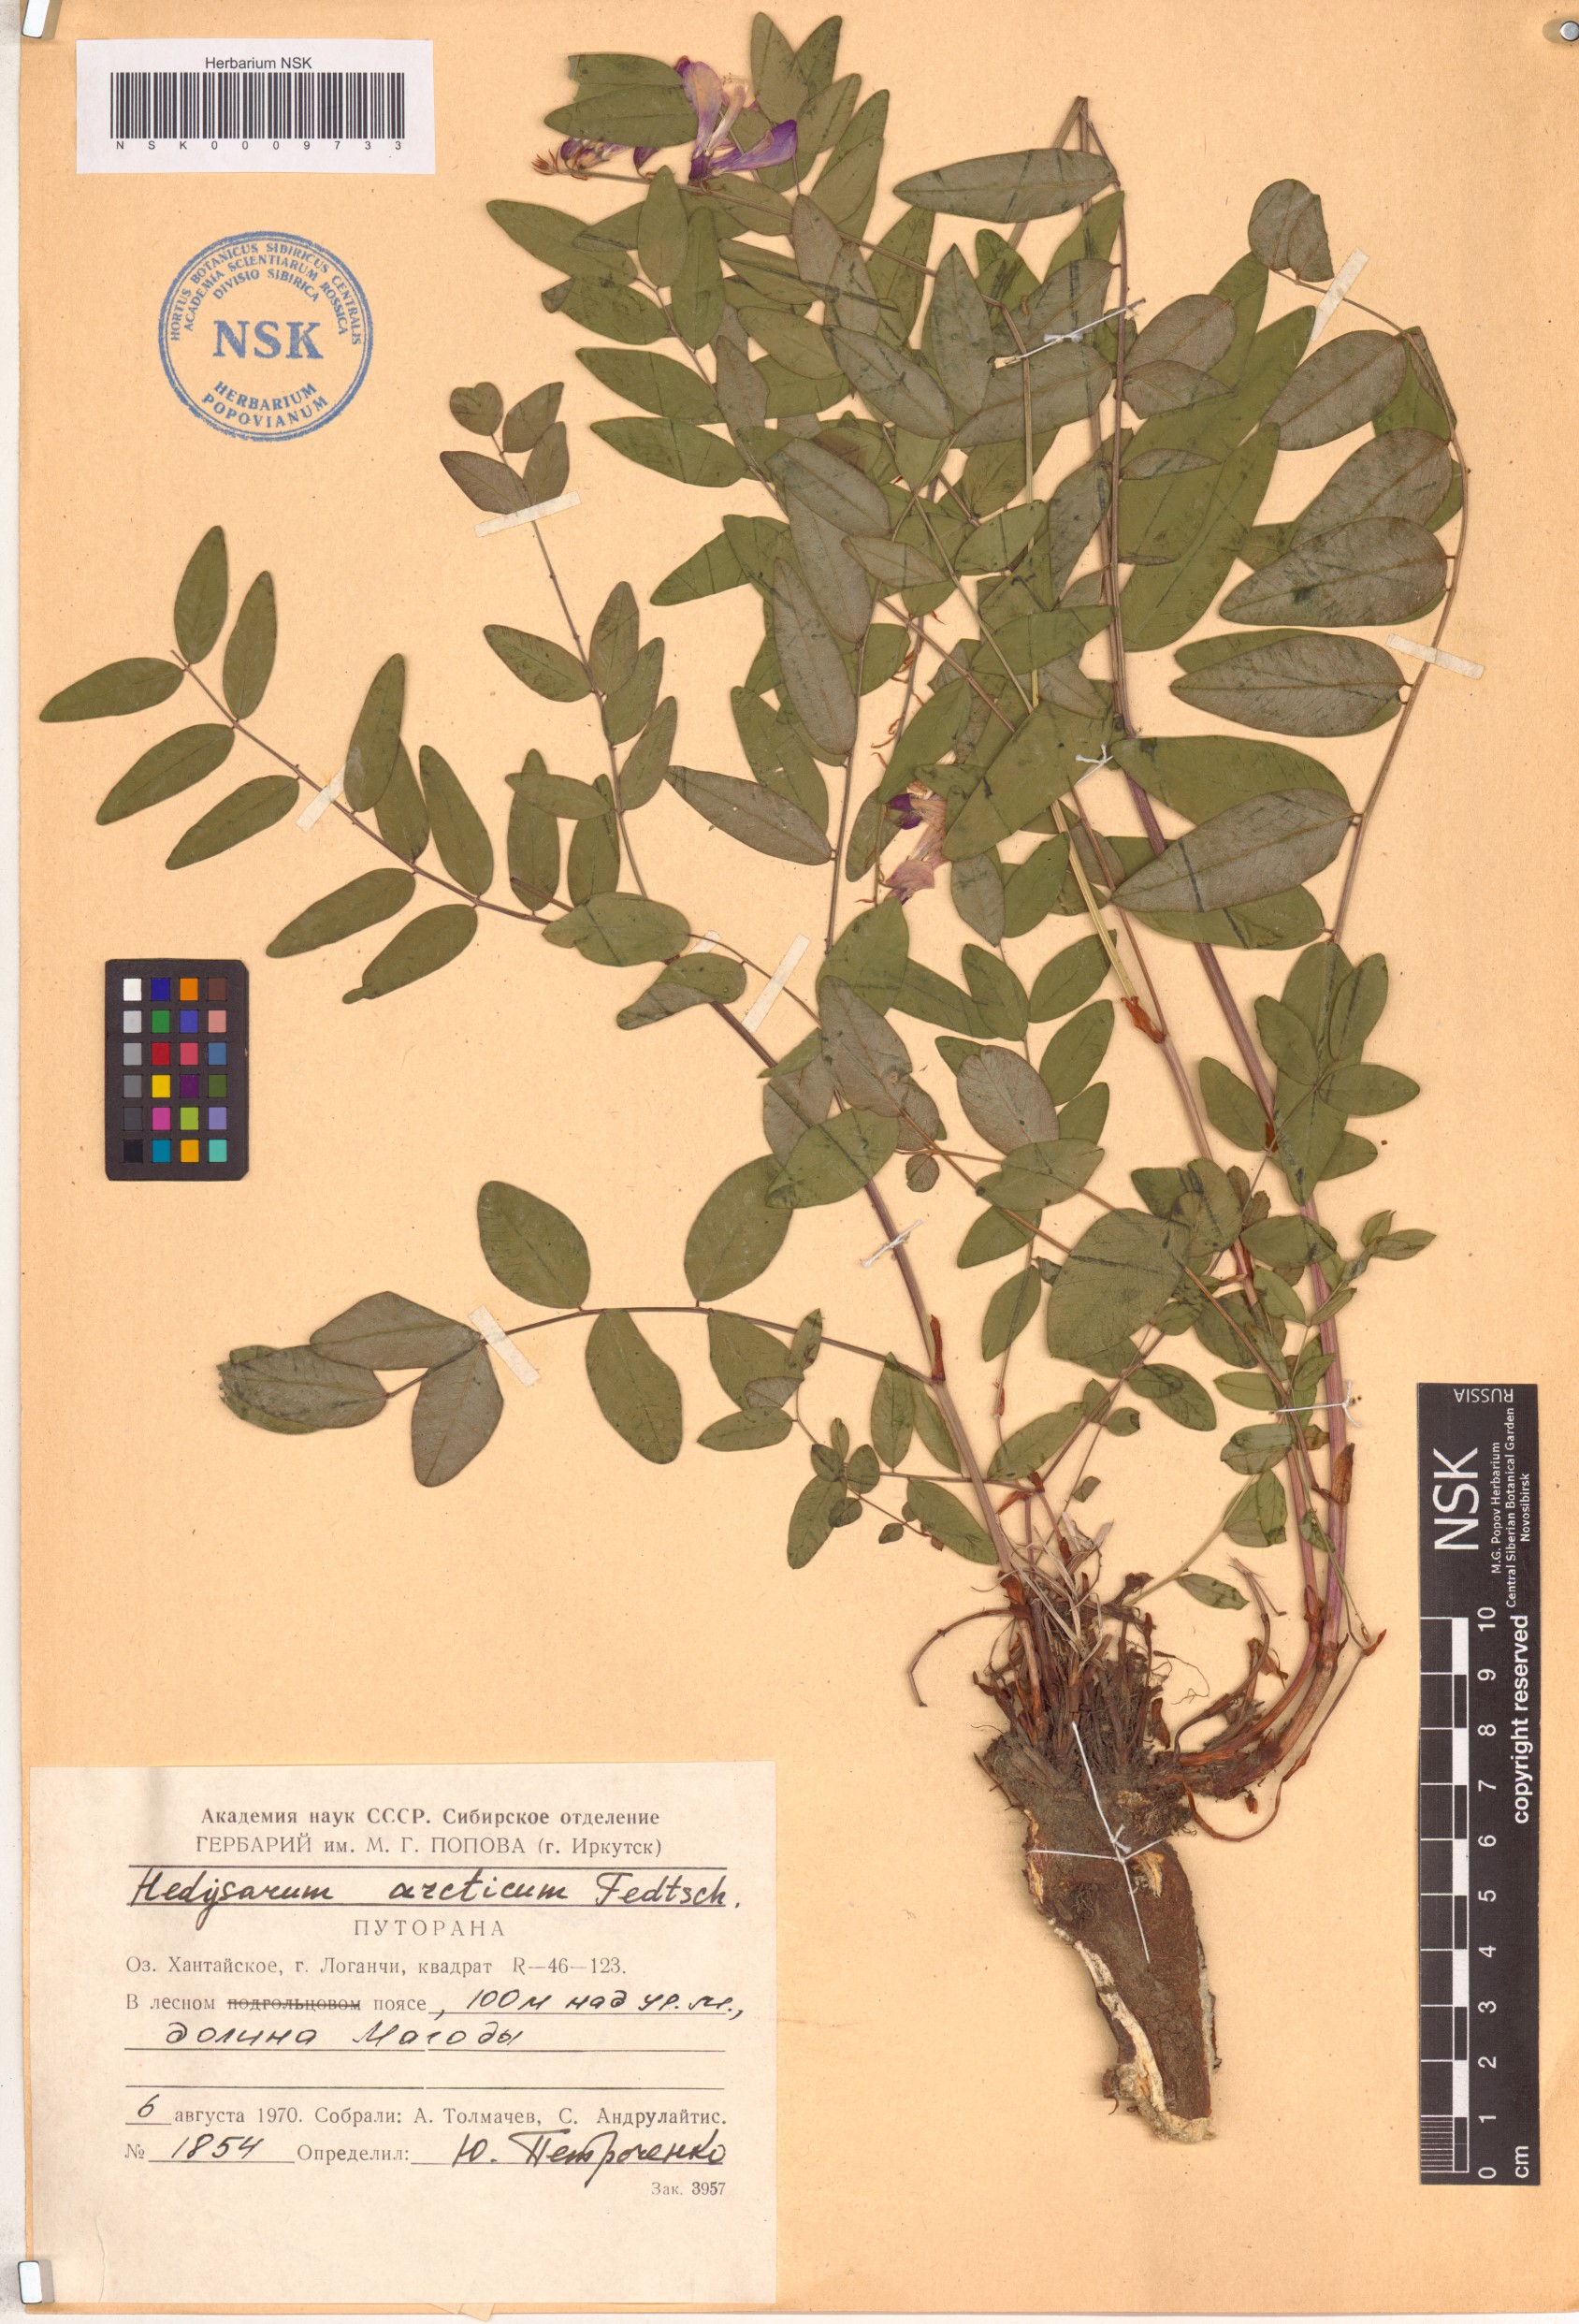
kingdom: Plantae
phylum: Tracheophyta
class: Magnoliopsida
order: Fabales
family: Fabaceae
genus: Hedysarum
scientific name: Hedysarum hedysaroides
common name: Alpine french-honeysuckle
